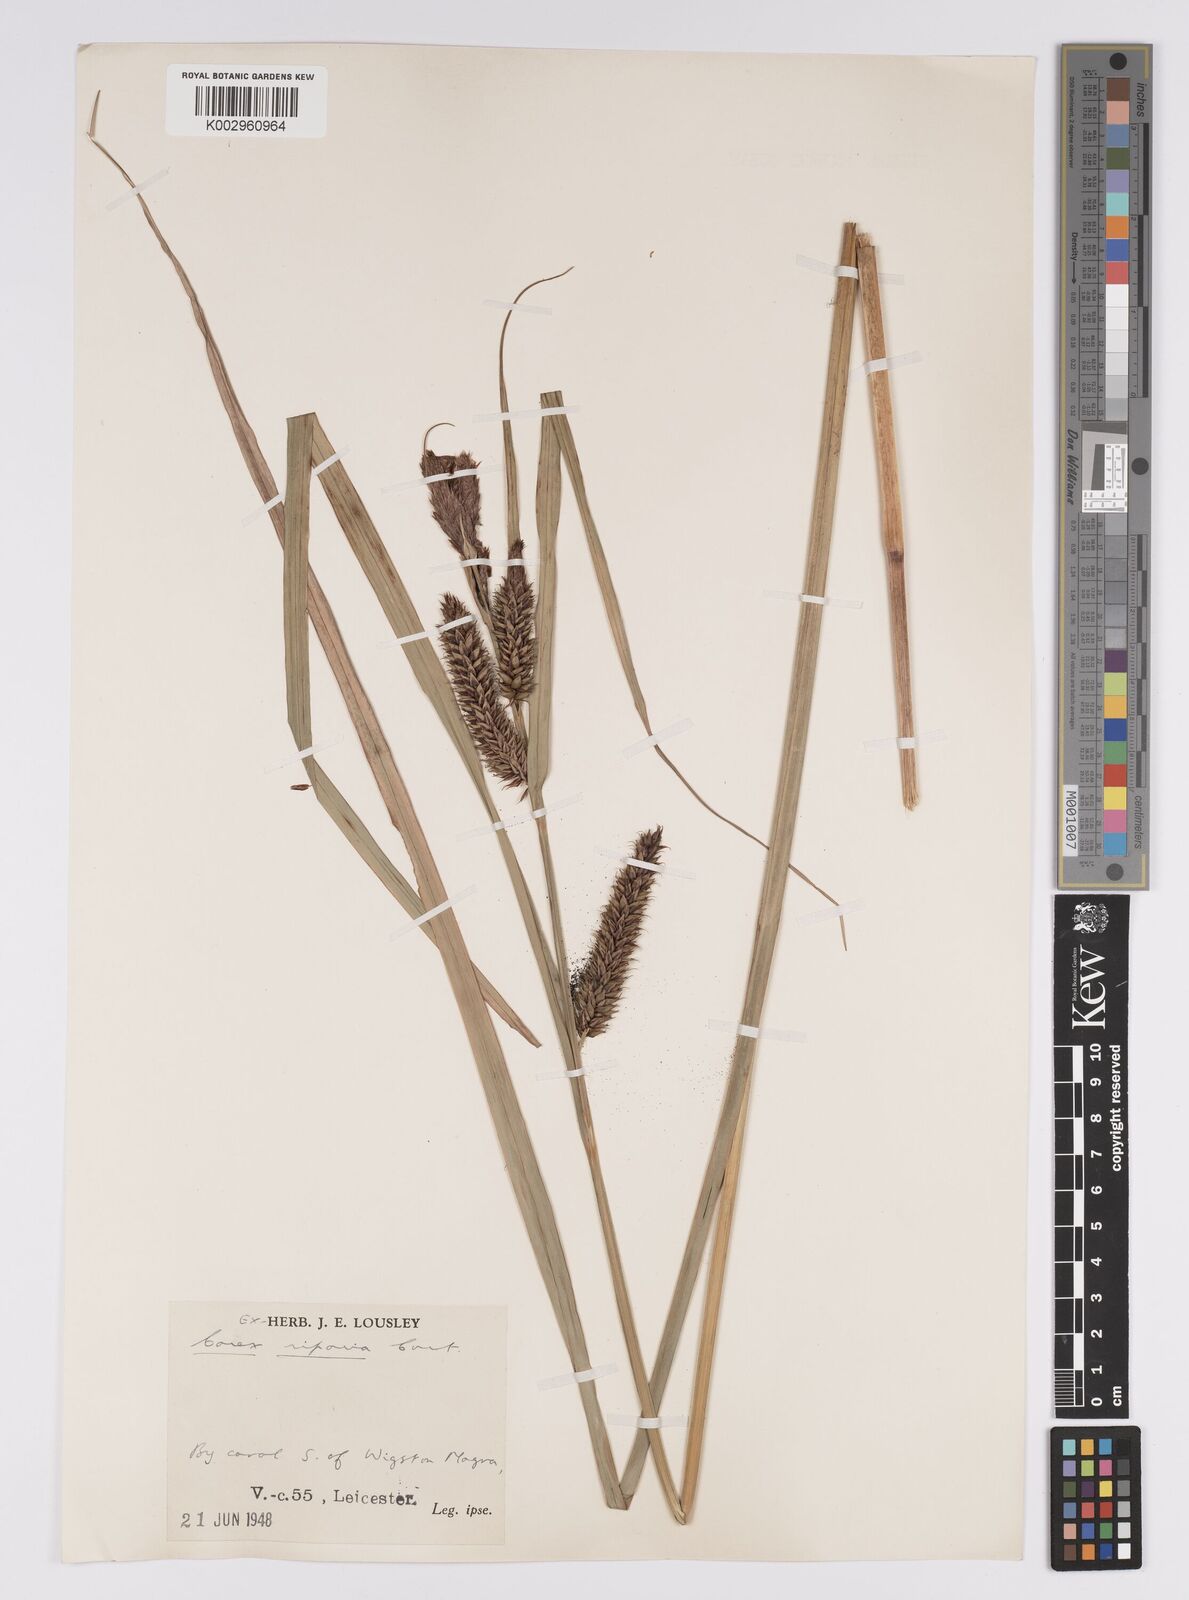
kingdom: Plantae
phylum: Tracheophyta
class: Liliopsida
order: Poales
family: Cyperaceae
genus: Carex
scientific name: Carex riparia
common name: Greater pond-sedge
